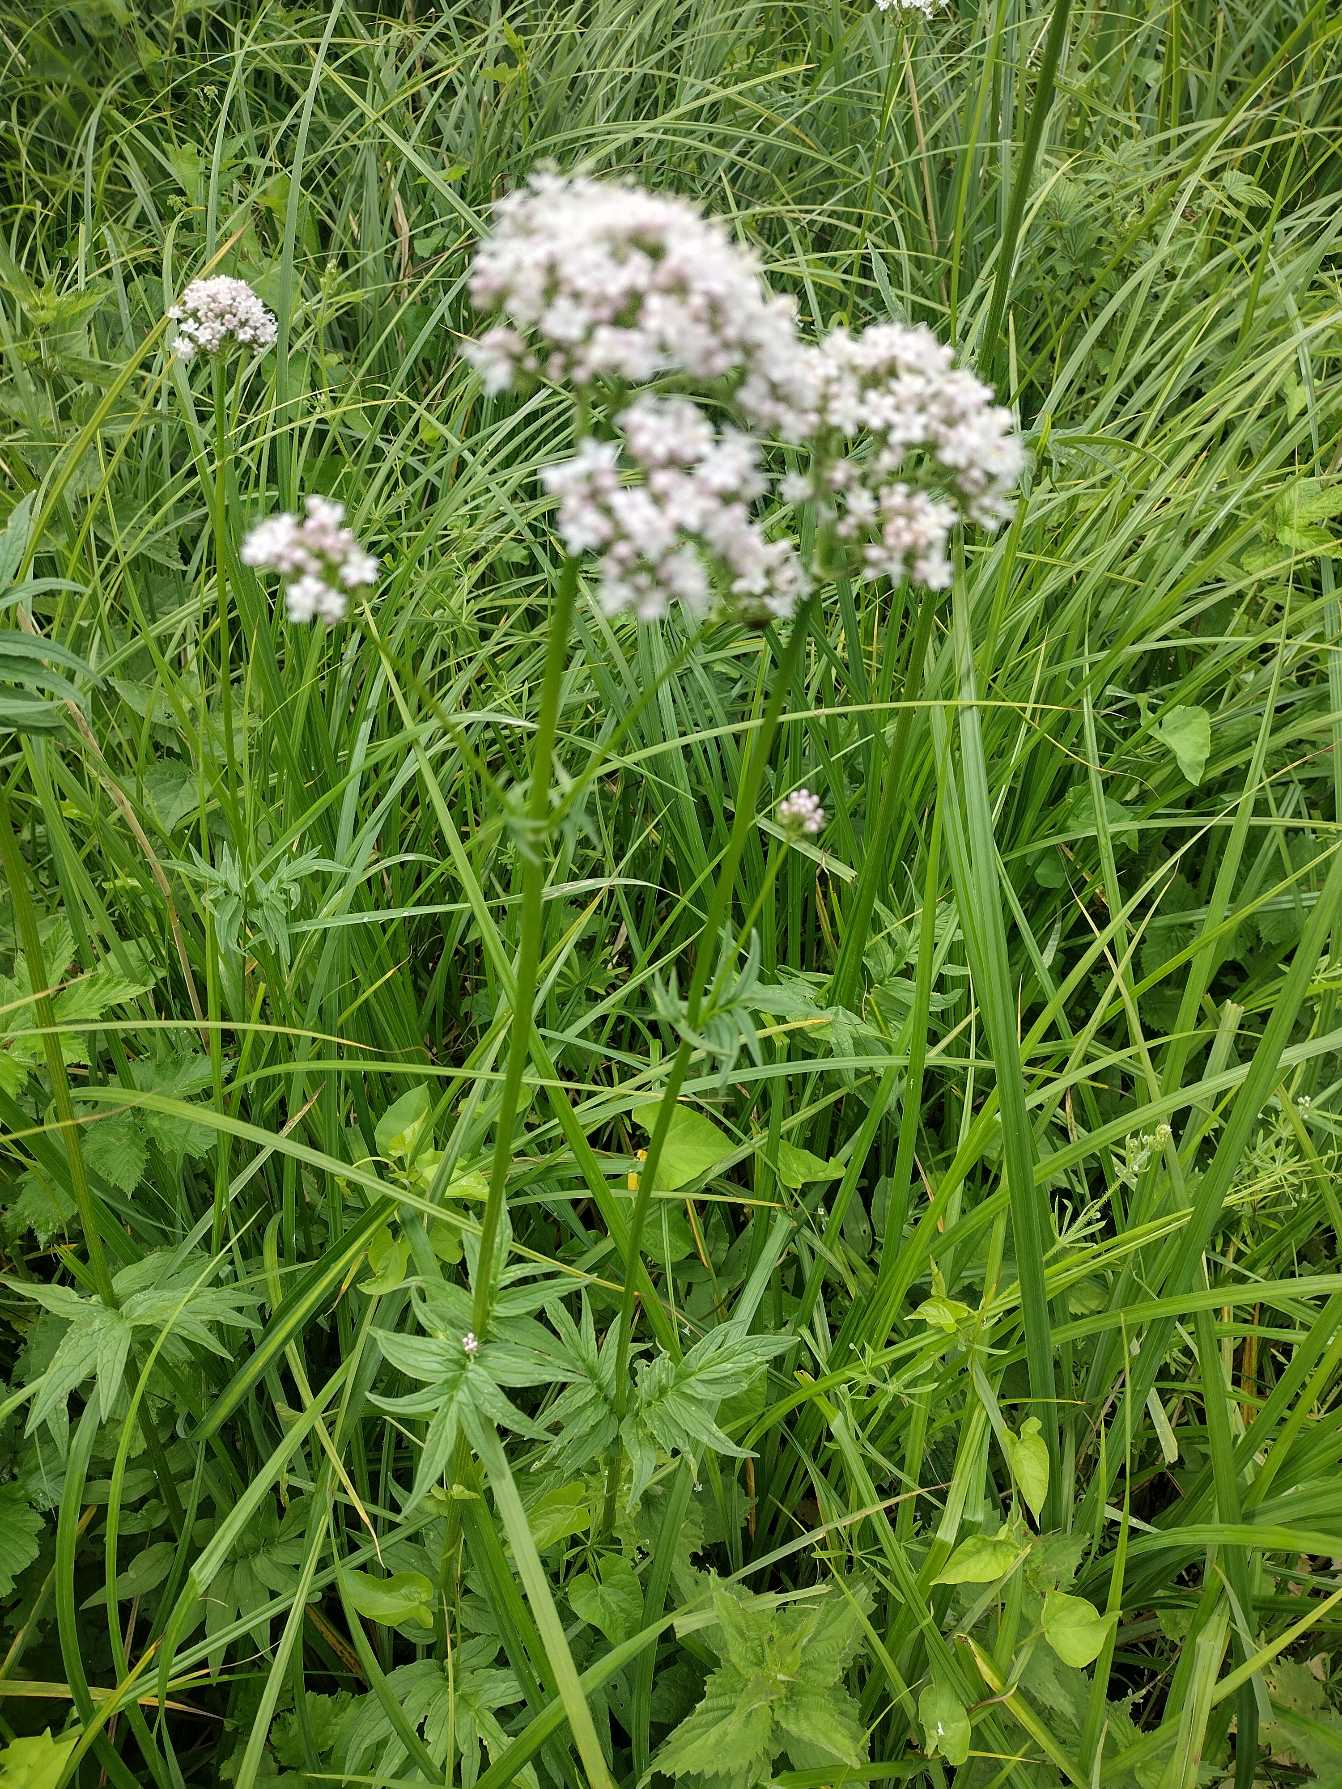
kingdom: Plantae
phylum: Tracheophyta
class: Magnoliopsida
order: Dipsacales
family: Caprifoliaceae
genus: Valeriana
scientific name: Valeriana
